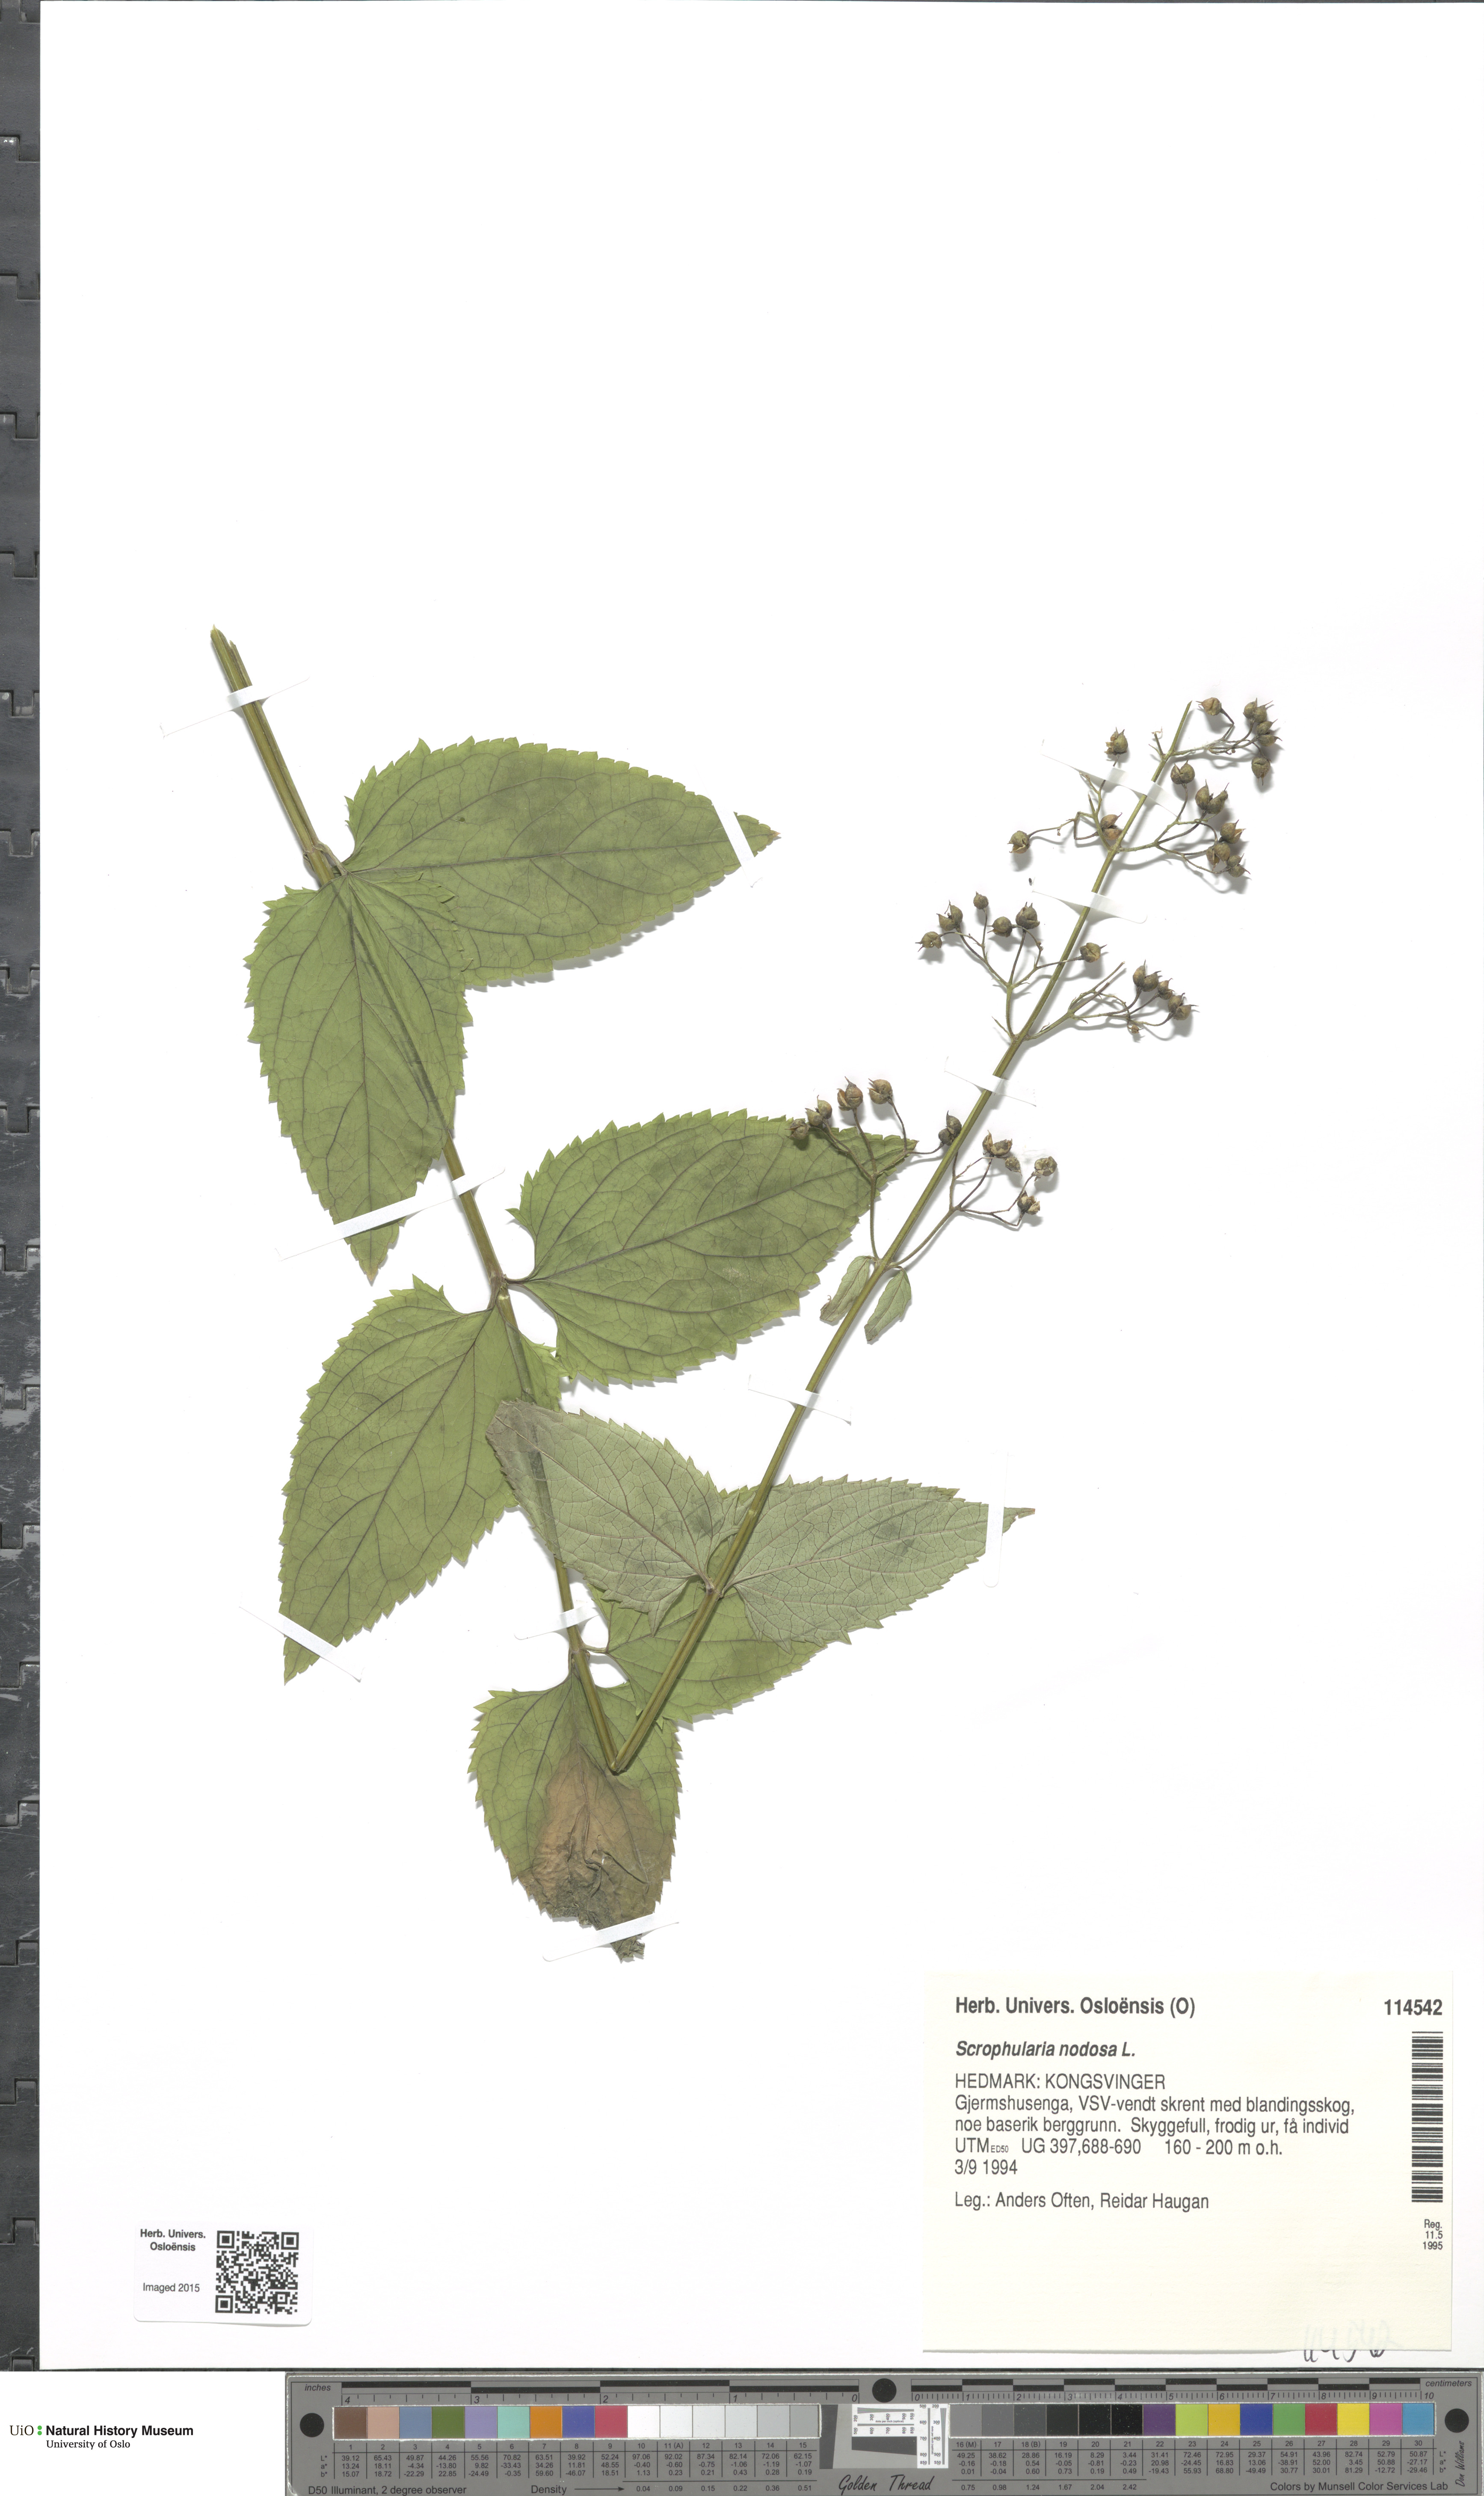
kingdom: Plantae
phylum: Tracheophyta
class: Magnoliopsida
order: Lamiales
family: Scrophulariaceae
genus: Scrophularia
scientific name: Scrophularia nodosa
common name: Common figwort
